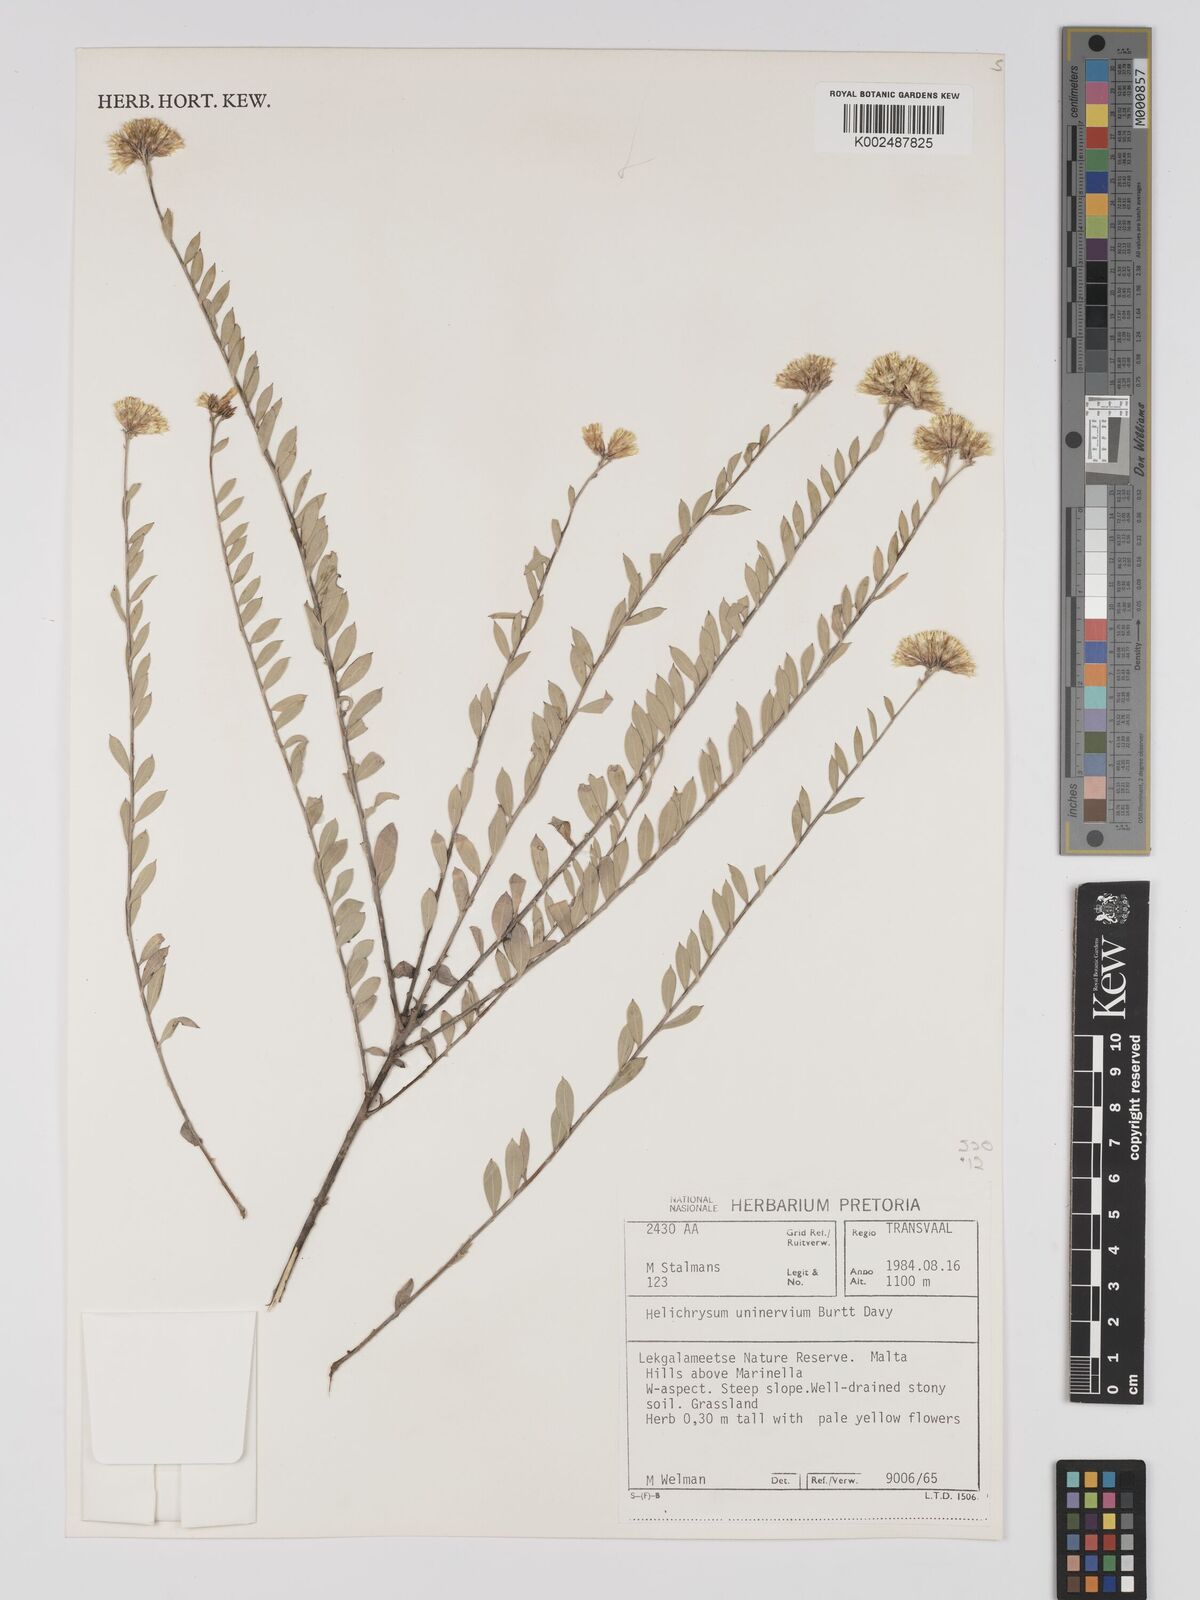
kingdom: Plantae
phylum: Tracheophyta
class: Magnoliopsida
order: Asterales
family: Asteraceae
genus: Helichrysum
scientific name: Helichrysum uninervium
